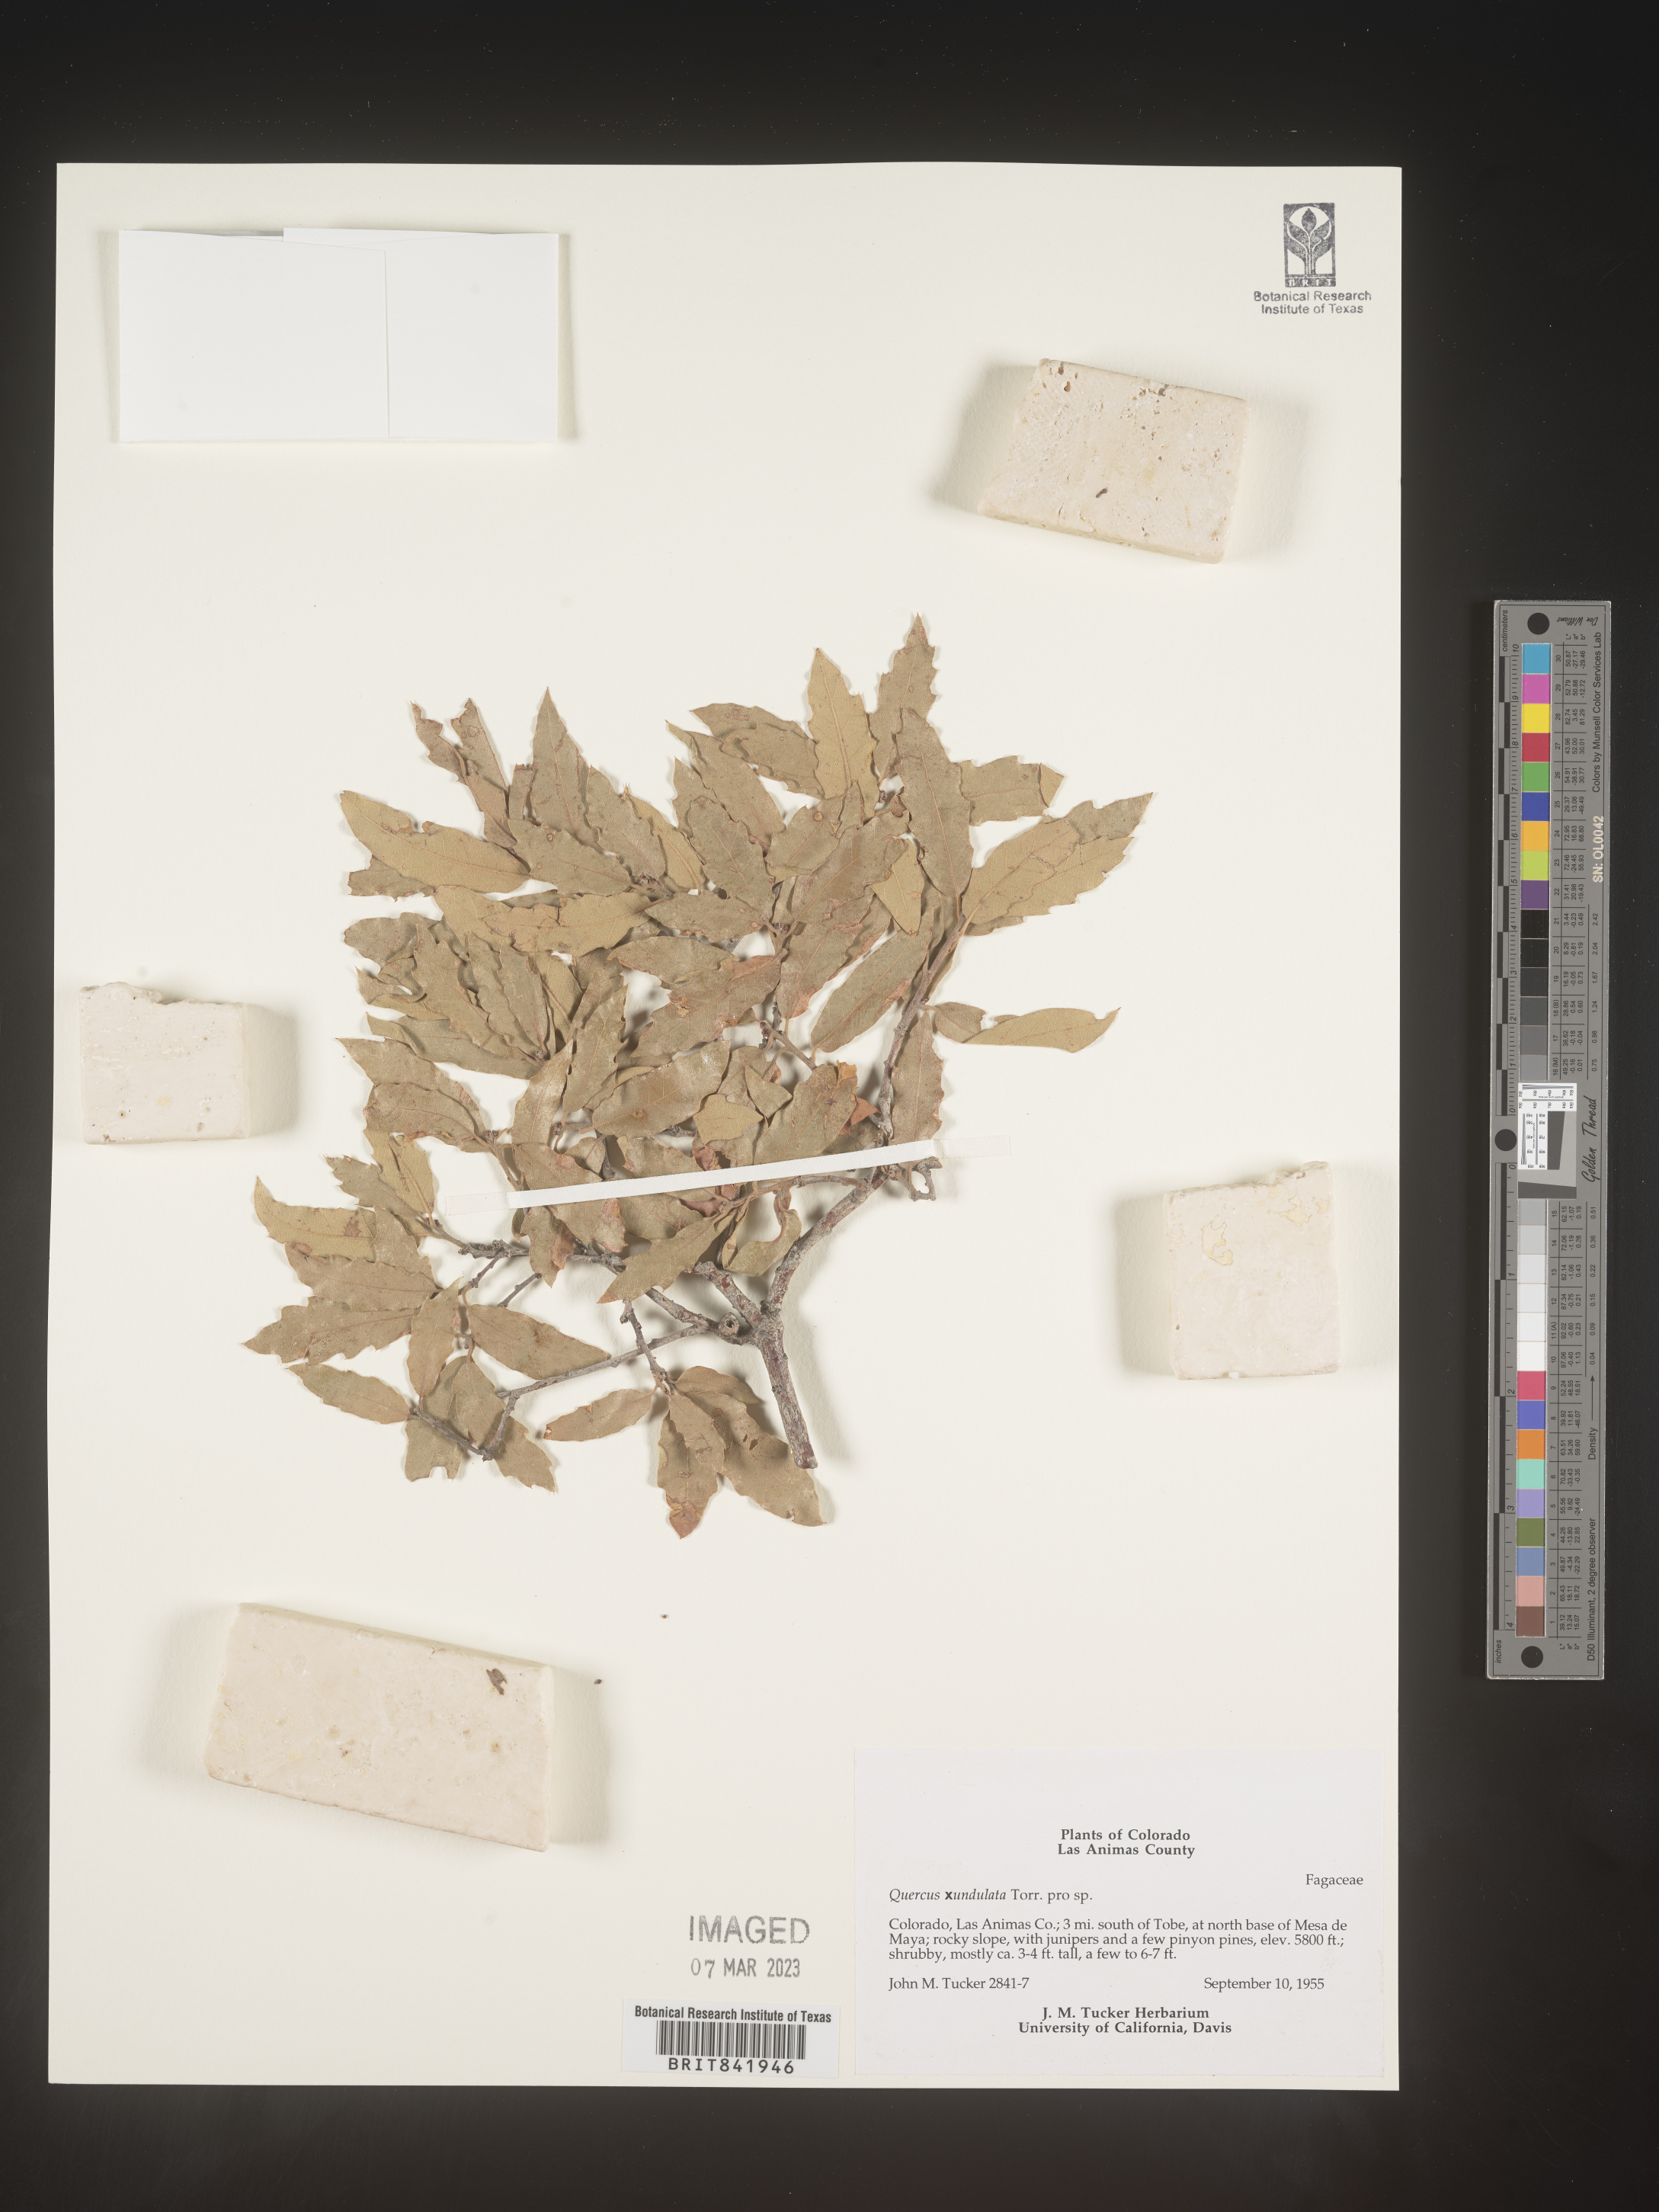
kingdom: Plantae
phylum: Tracheophyta
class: Magnoliopsida
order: Fagales
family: Fagaceae
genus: Quercus
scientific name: Quercus undulata
